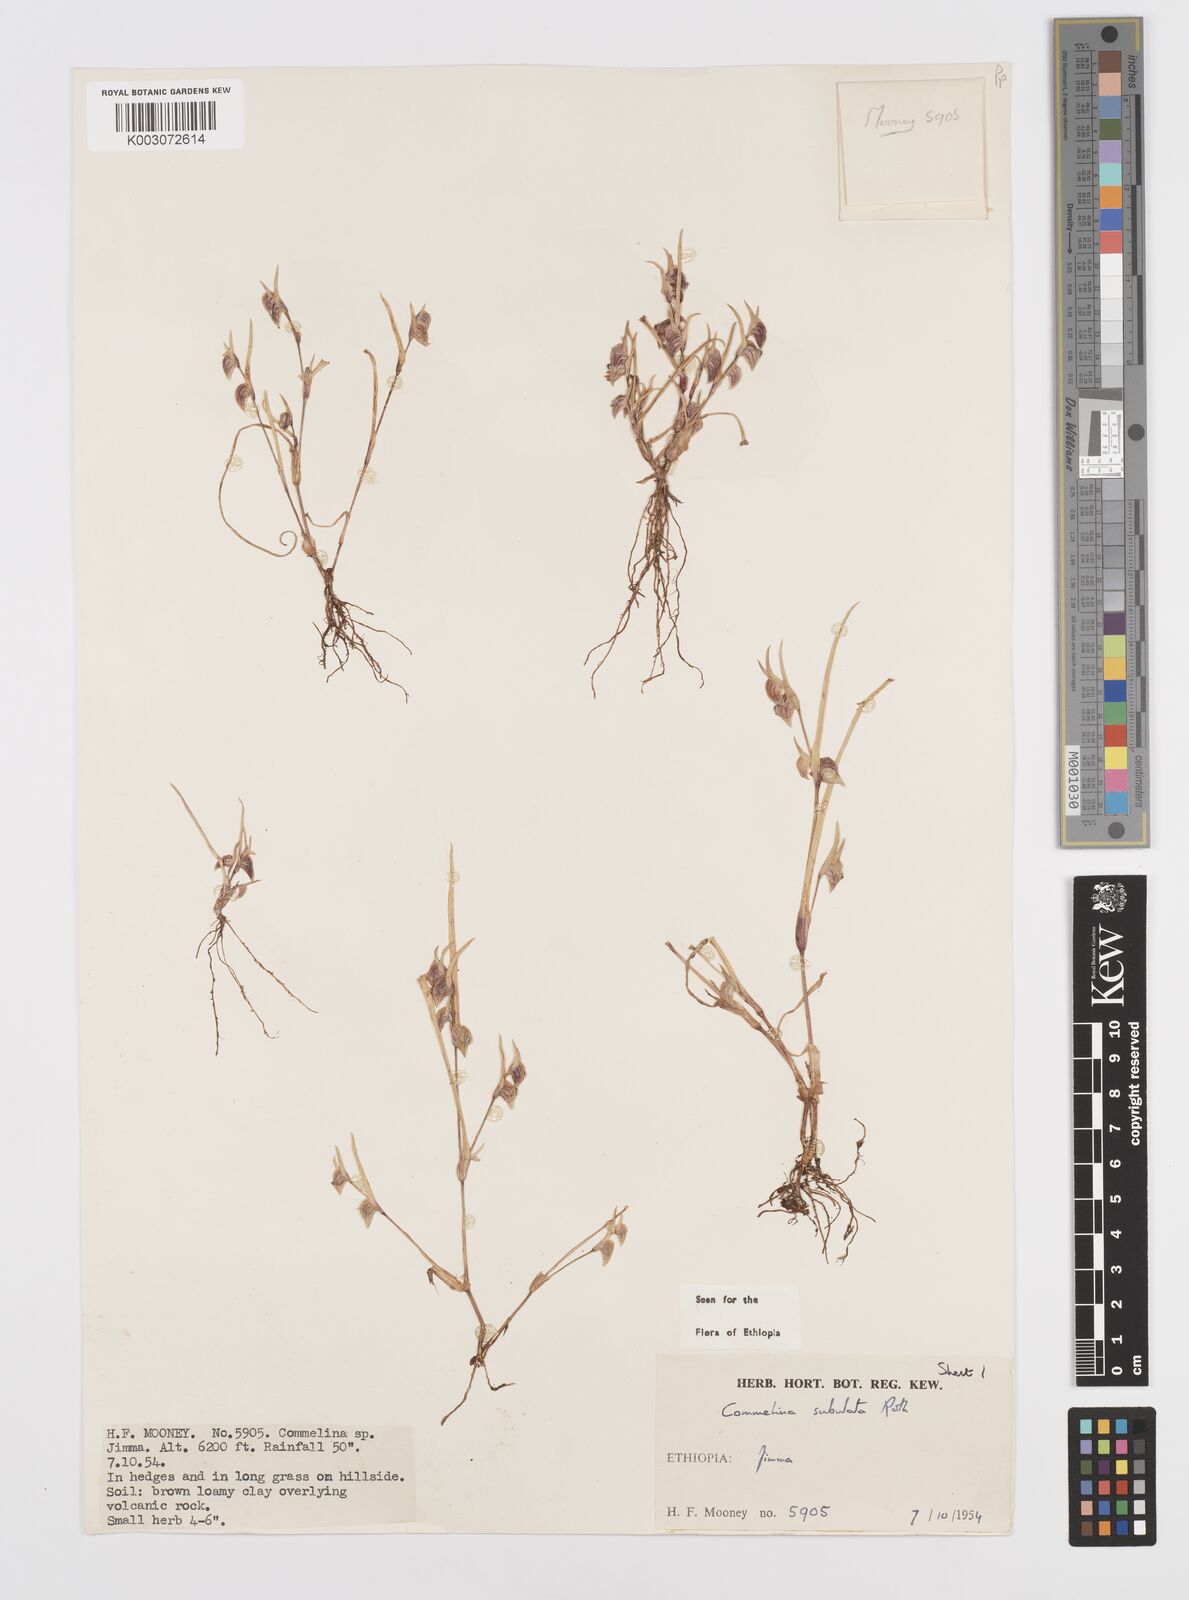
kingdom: Plantae
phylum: Tracheophyta
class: Liliopsida
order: Commelinales
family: Commelinaceae
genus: Commelina
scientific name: Commelina subulata
